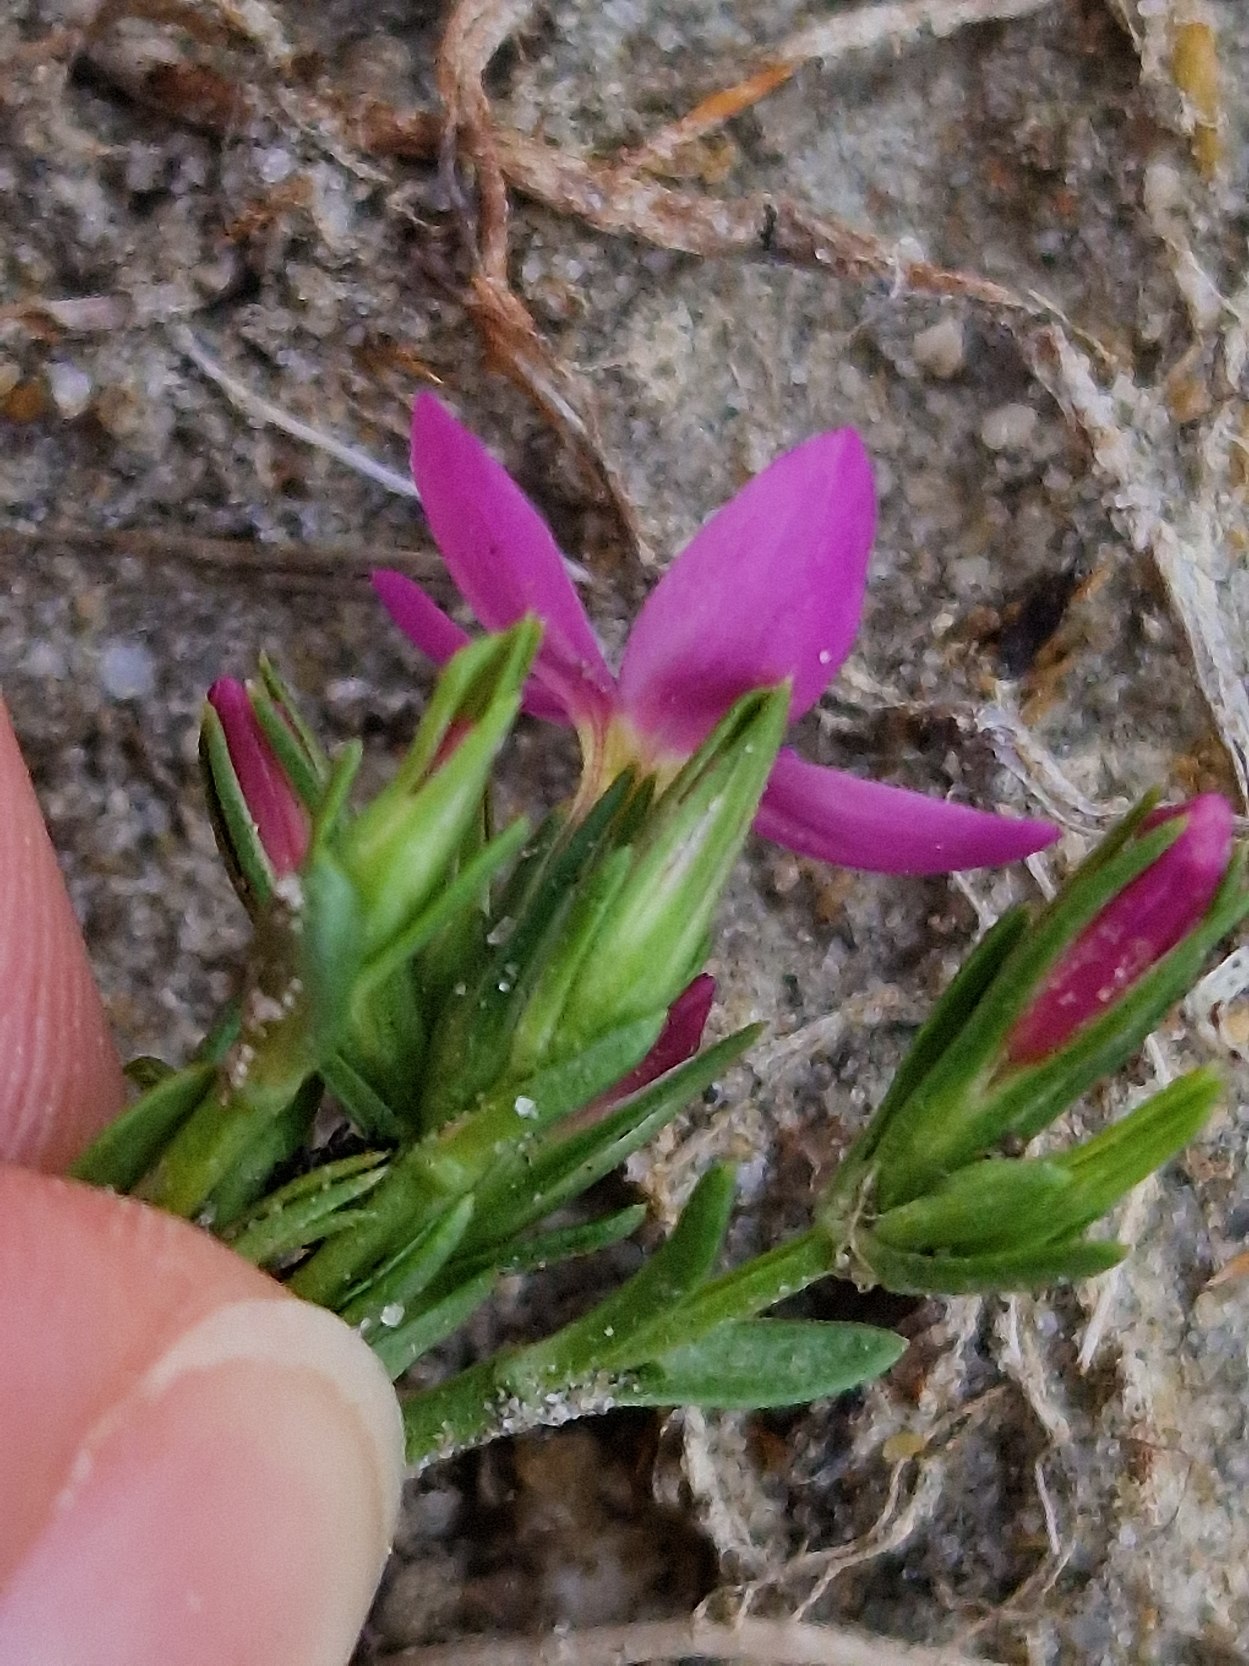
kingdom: Plantae
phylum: Tracheophyta
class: Magnoliopsida
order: Gentianales
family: Gentianaceae
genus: Centaurium
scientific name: Centaurium littorale
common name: Strand-tusindgylden
